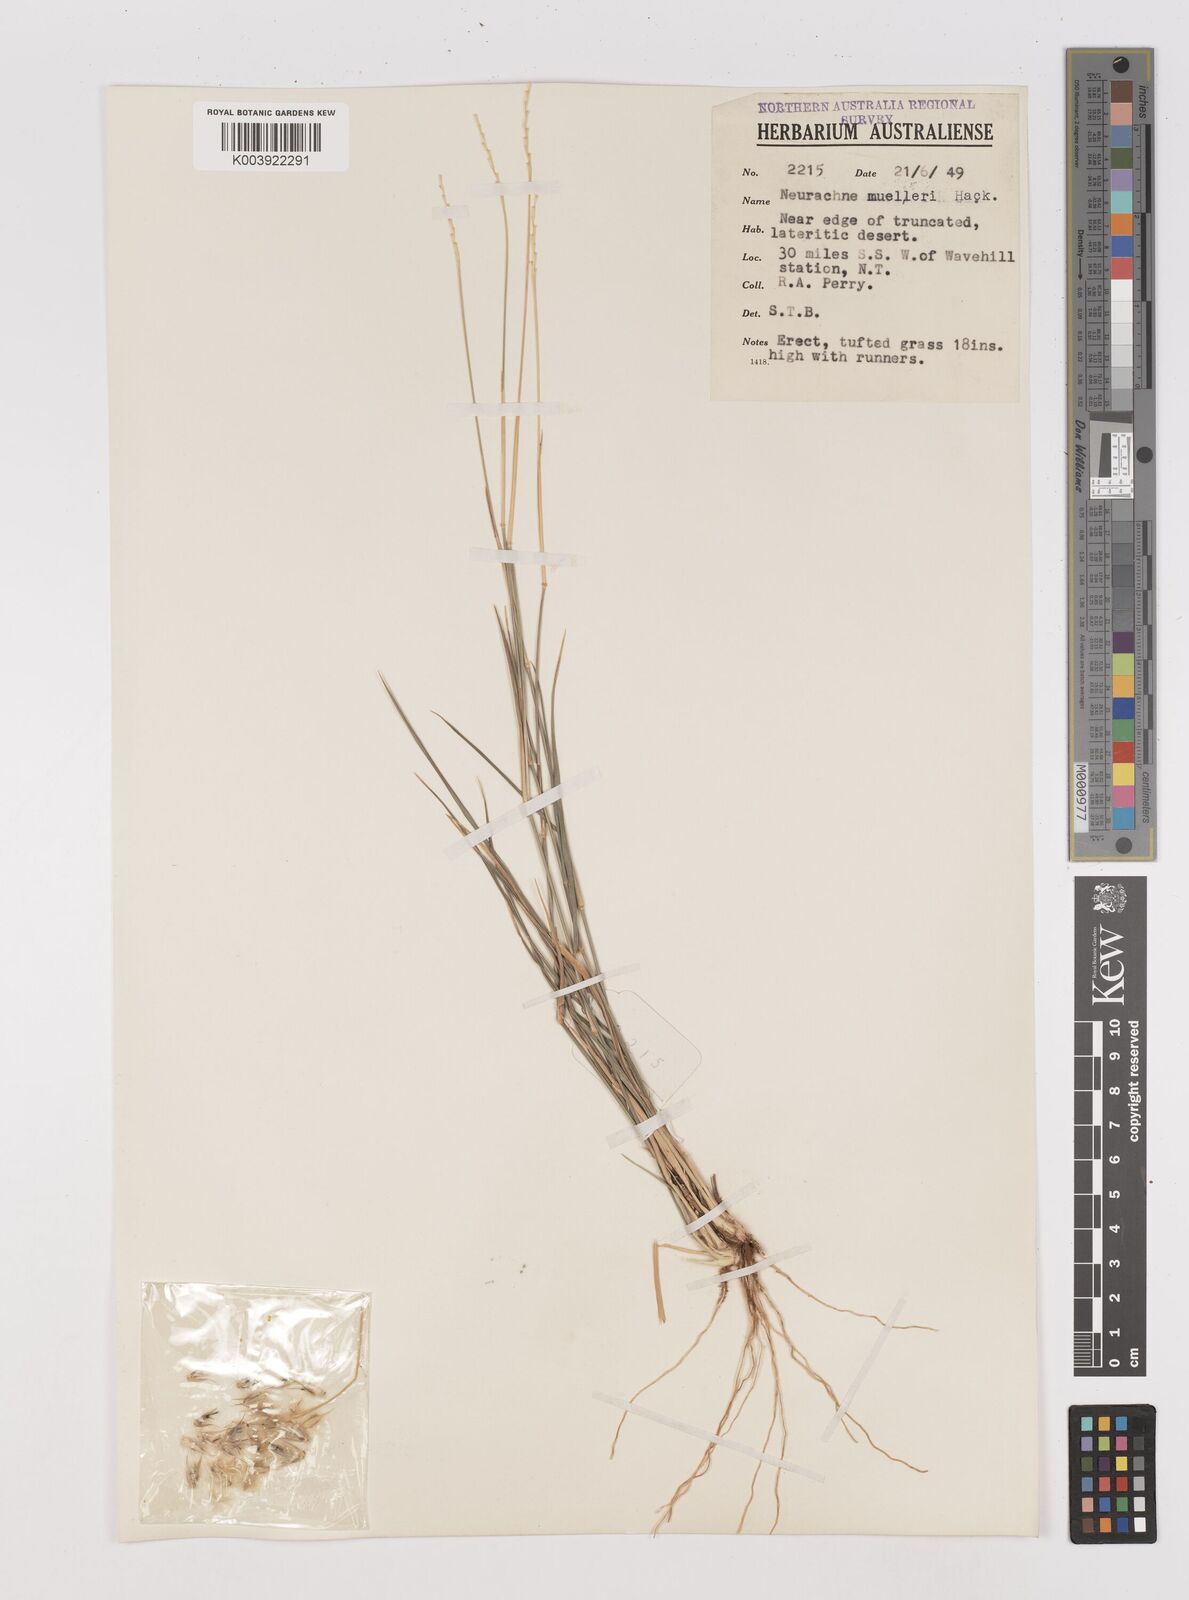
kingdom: Plantae
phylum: Tracheophyta
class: Liliopsida
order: Poales
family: Poaceae
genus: Neurachne
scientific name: Neurachne muelleri
